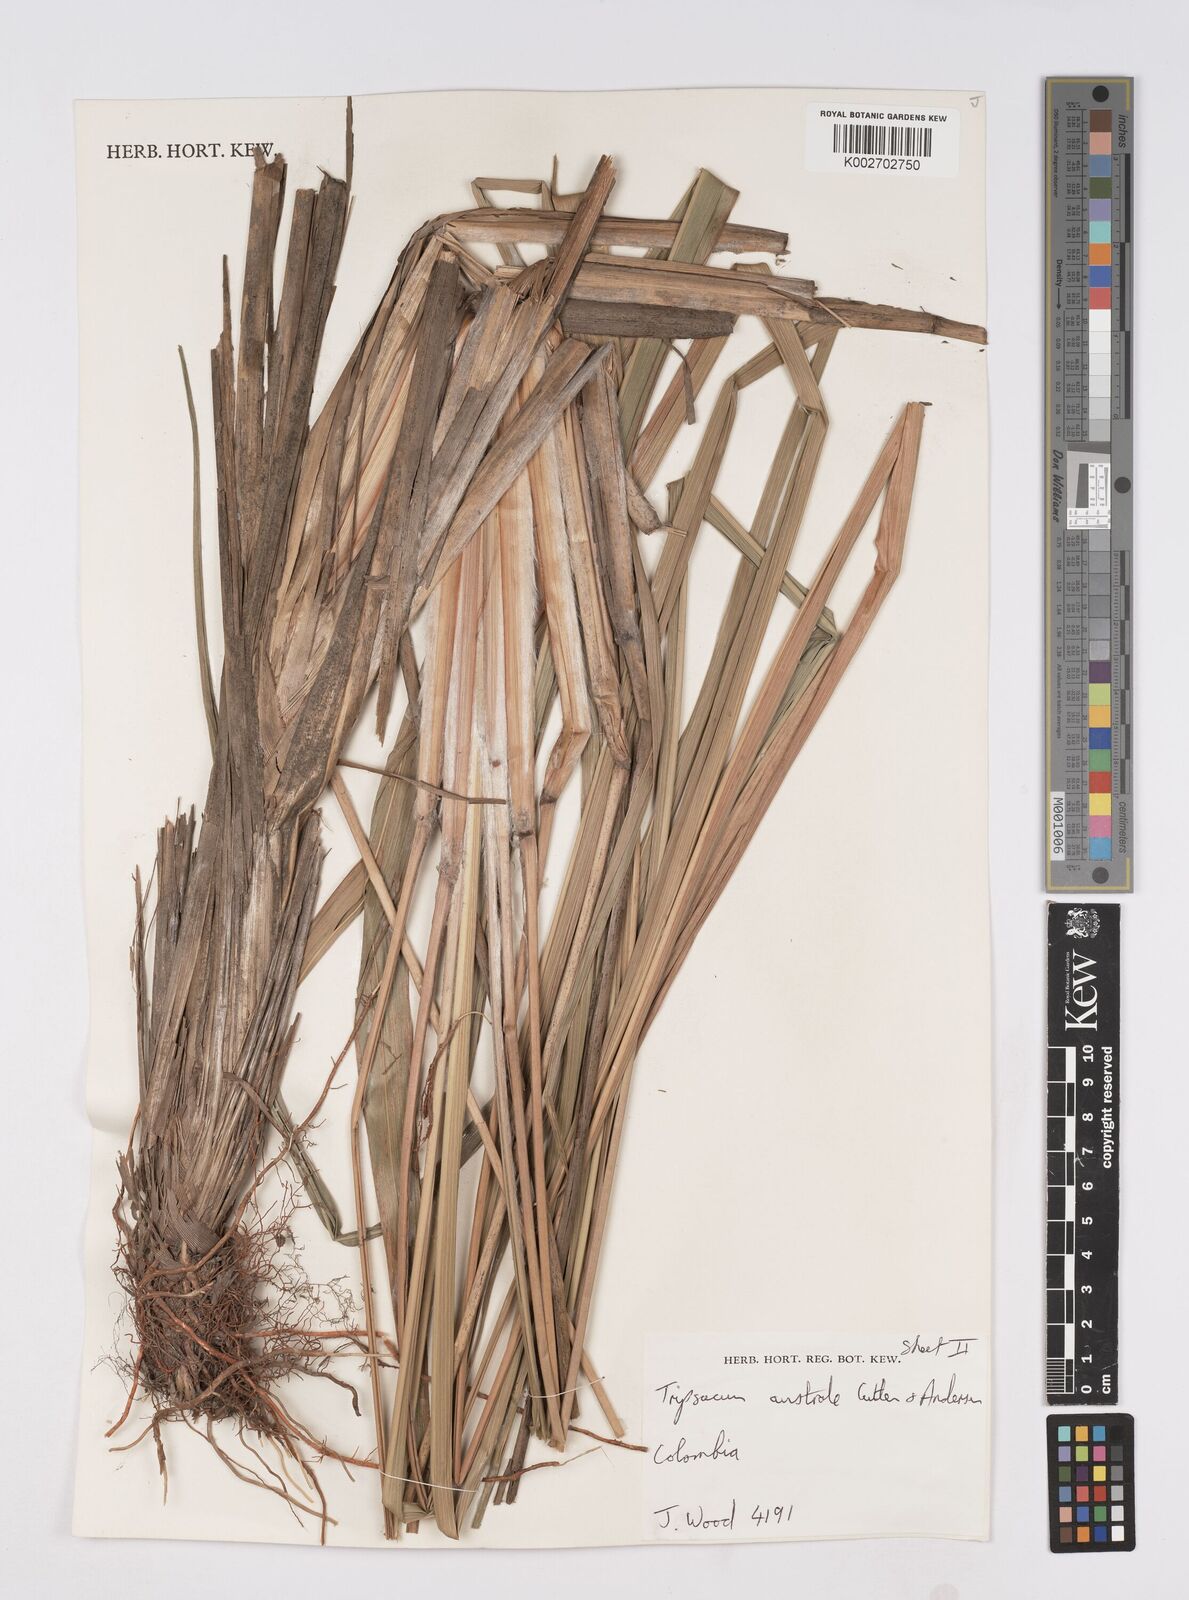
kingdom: Plantae
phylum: Tracheophyta
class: Liliopsida
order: Poales
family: Poaceae
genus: Tripsacum
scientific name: Tripsacum australe
